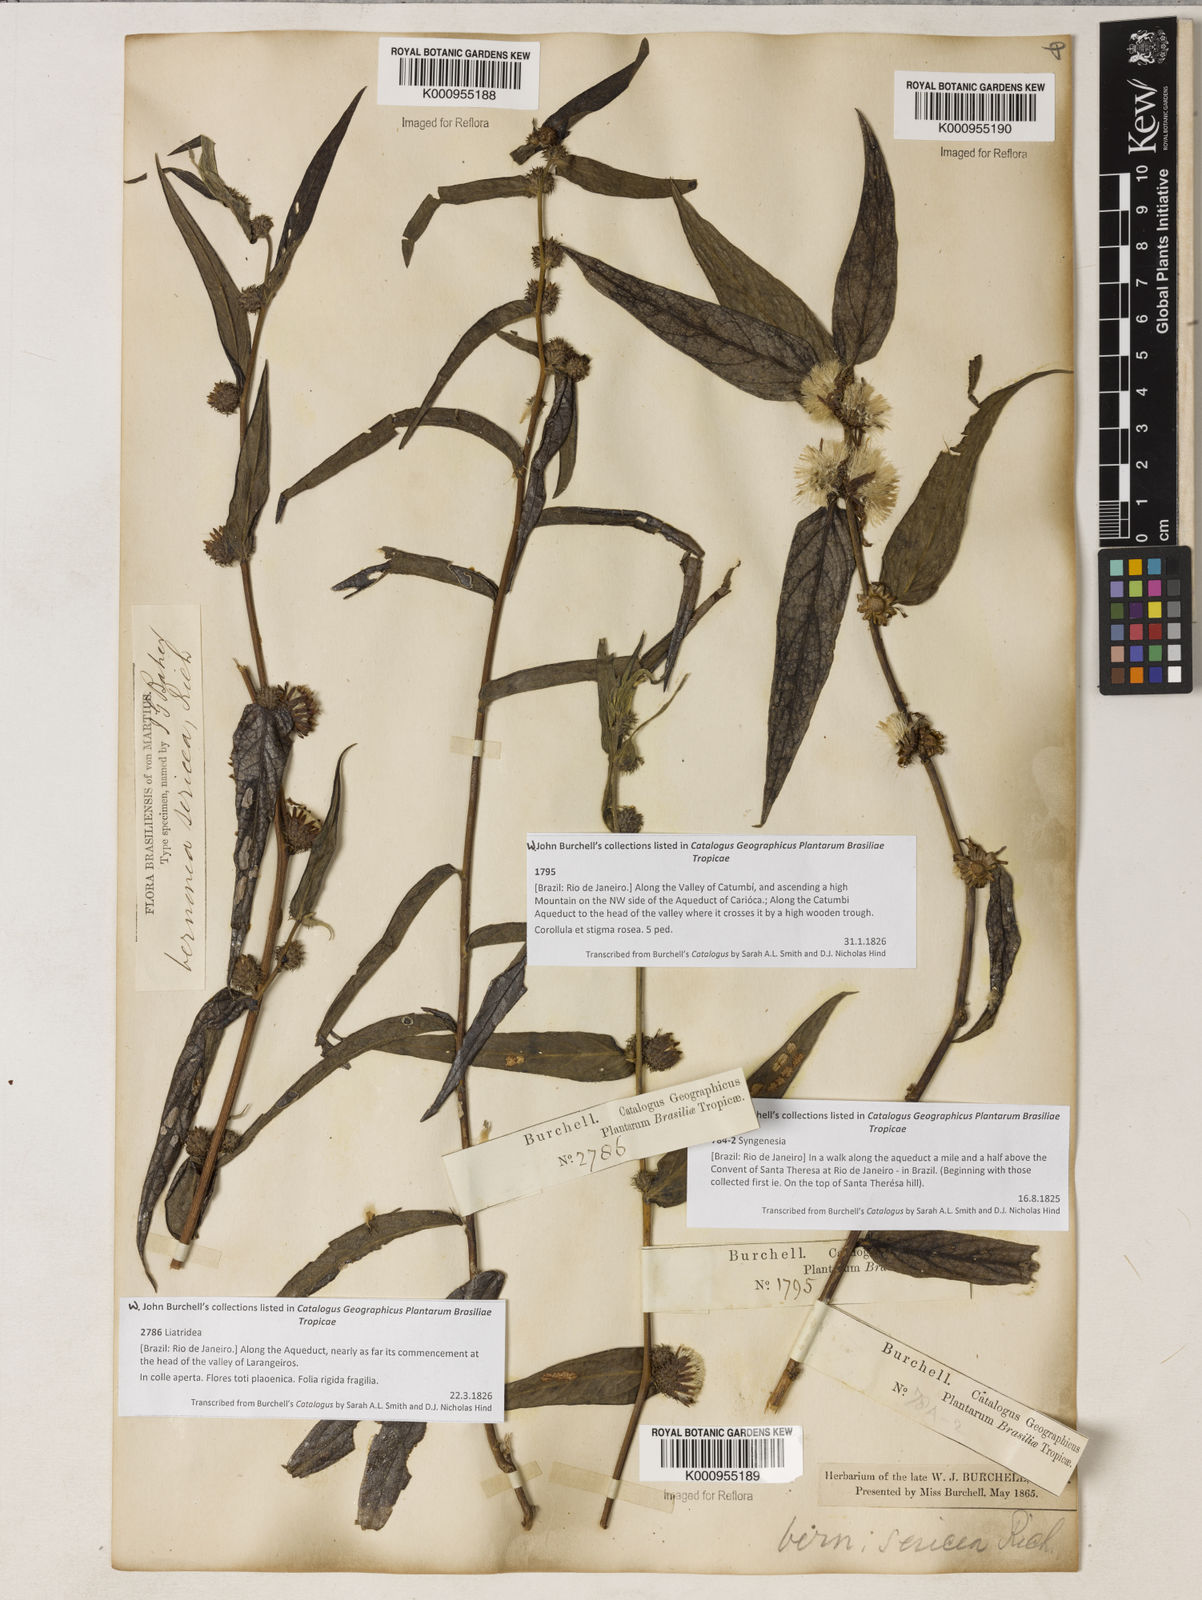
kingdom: Plantae
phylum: Tracheophyta
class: Magnoliopsida
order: Asterales
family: Asteraceae
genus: Lepidaploa
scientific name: Lepidaploa sericea
